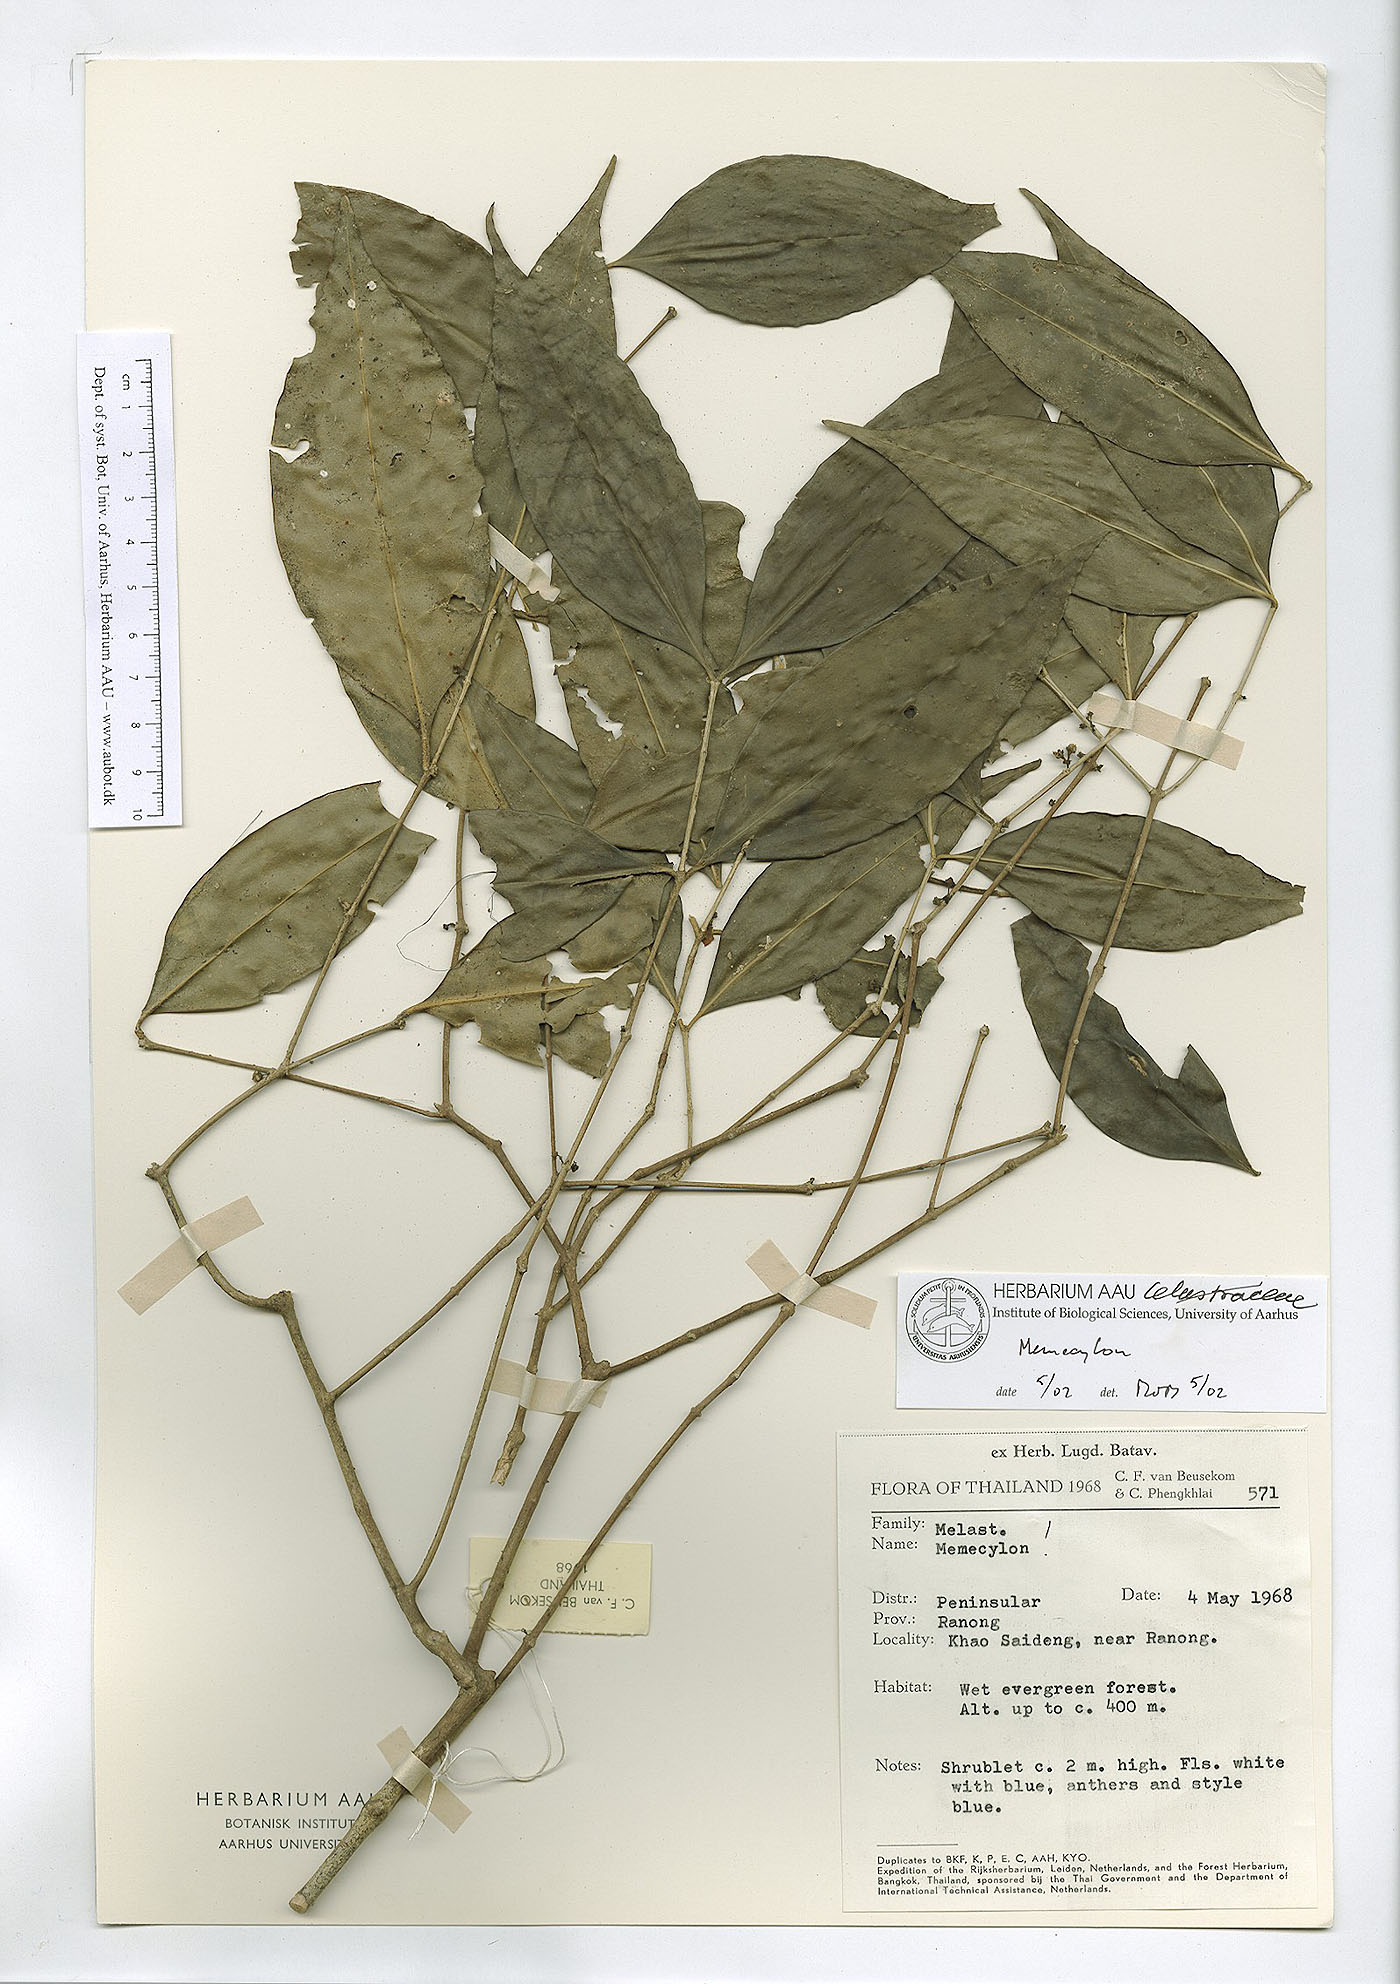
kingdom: Plantae
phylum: Tracheophyta
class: Magnoliopsida
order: Myrtales
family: Melastomataceae
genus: Memecylon
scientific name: Memecylon cantleyi
